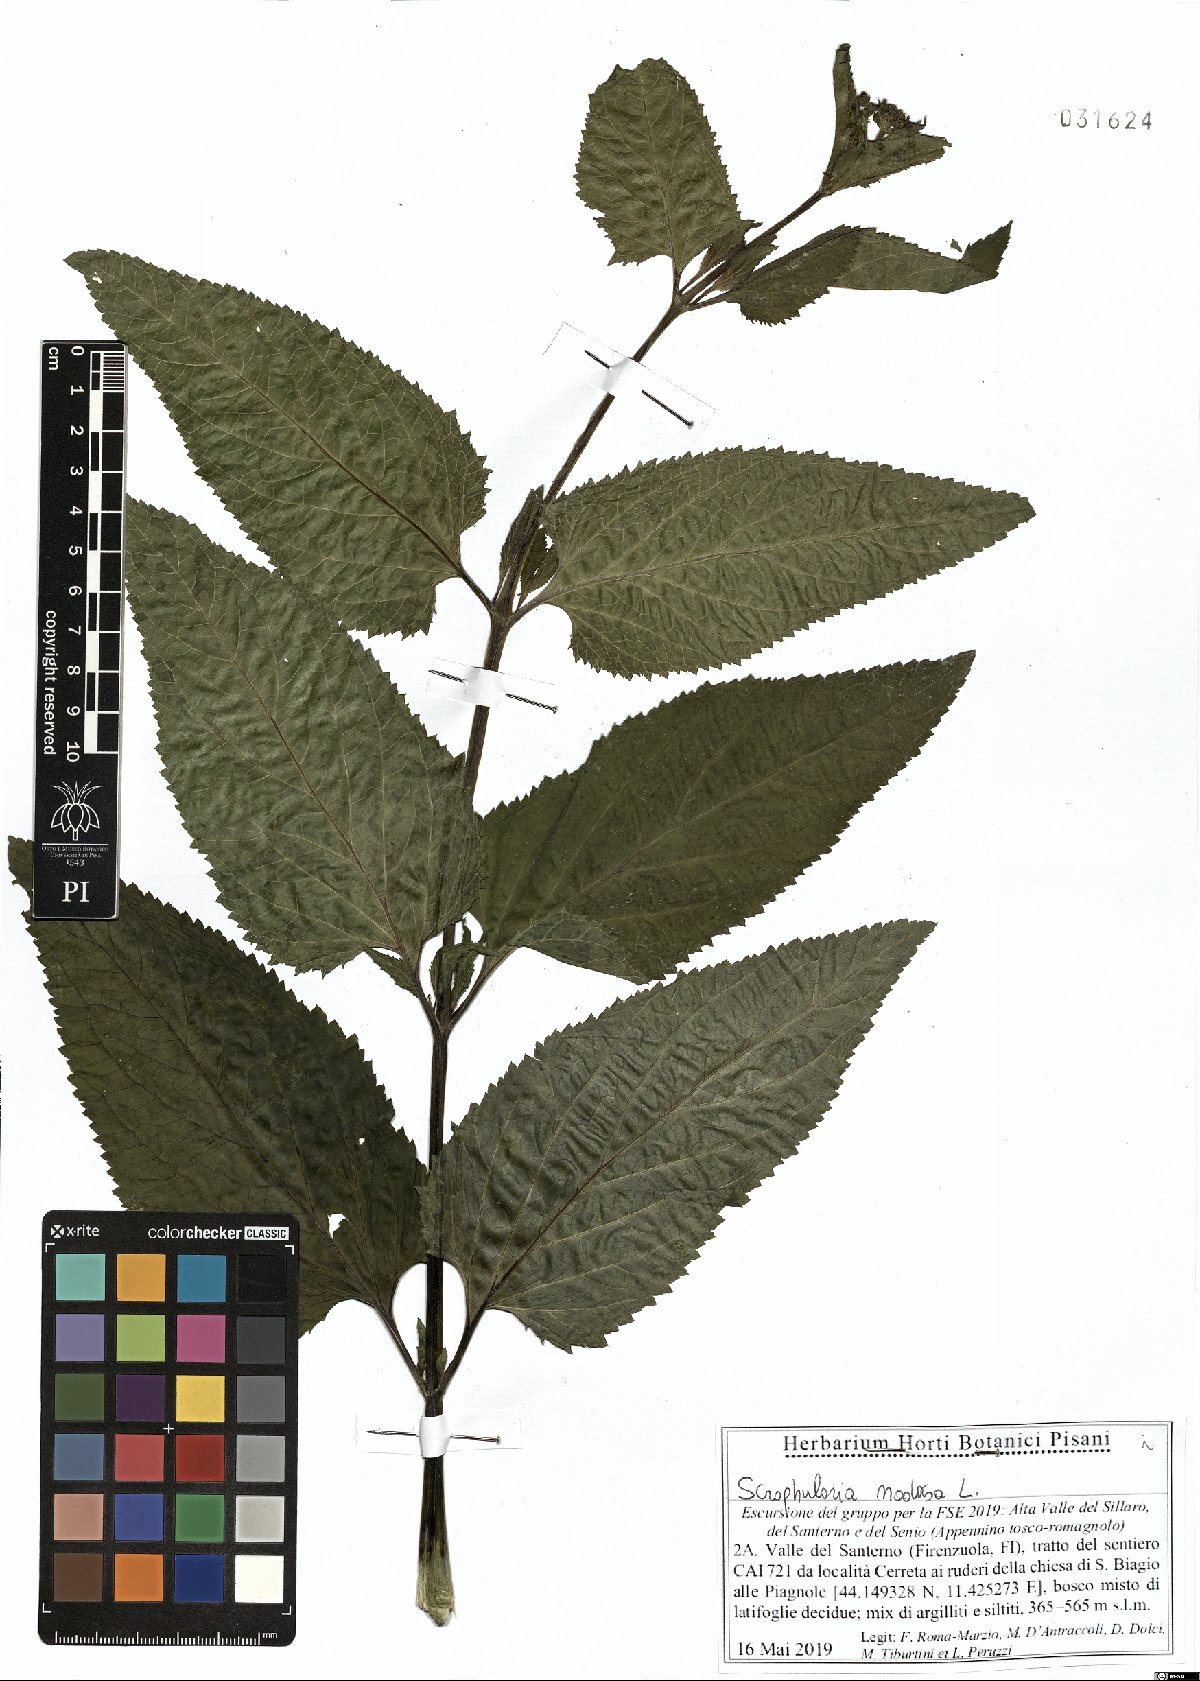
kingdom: Plantae
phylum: Tracheophyta
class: Magnoliopsida
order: Lamiales
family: Scrophulariaceae
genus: Scrophularia
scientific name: Scrophularia nodosa
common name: Common figwort
